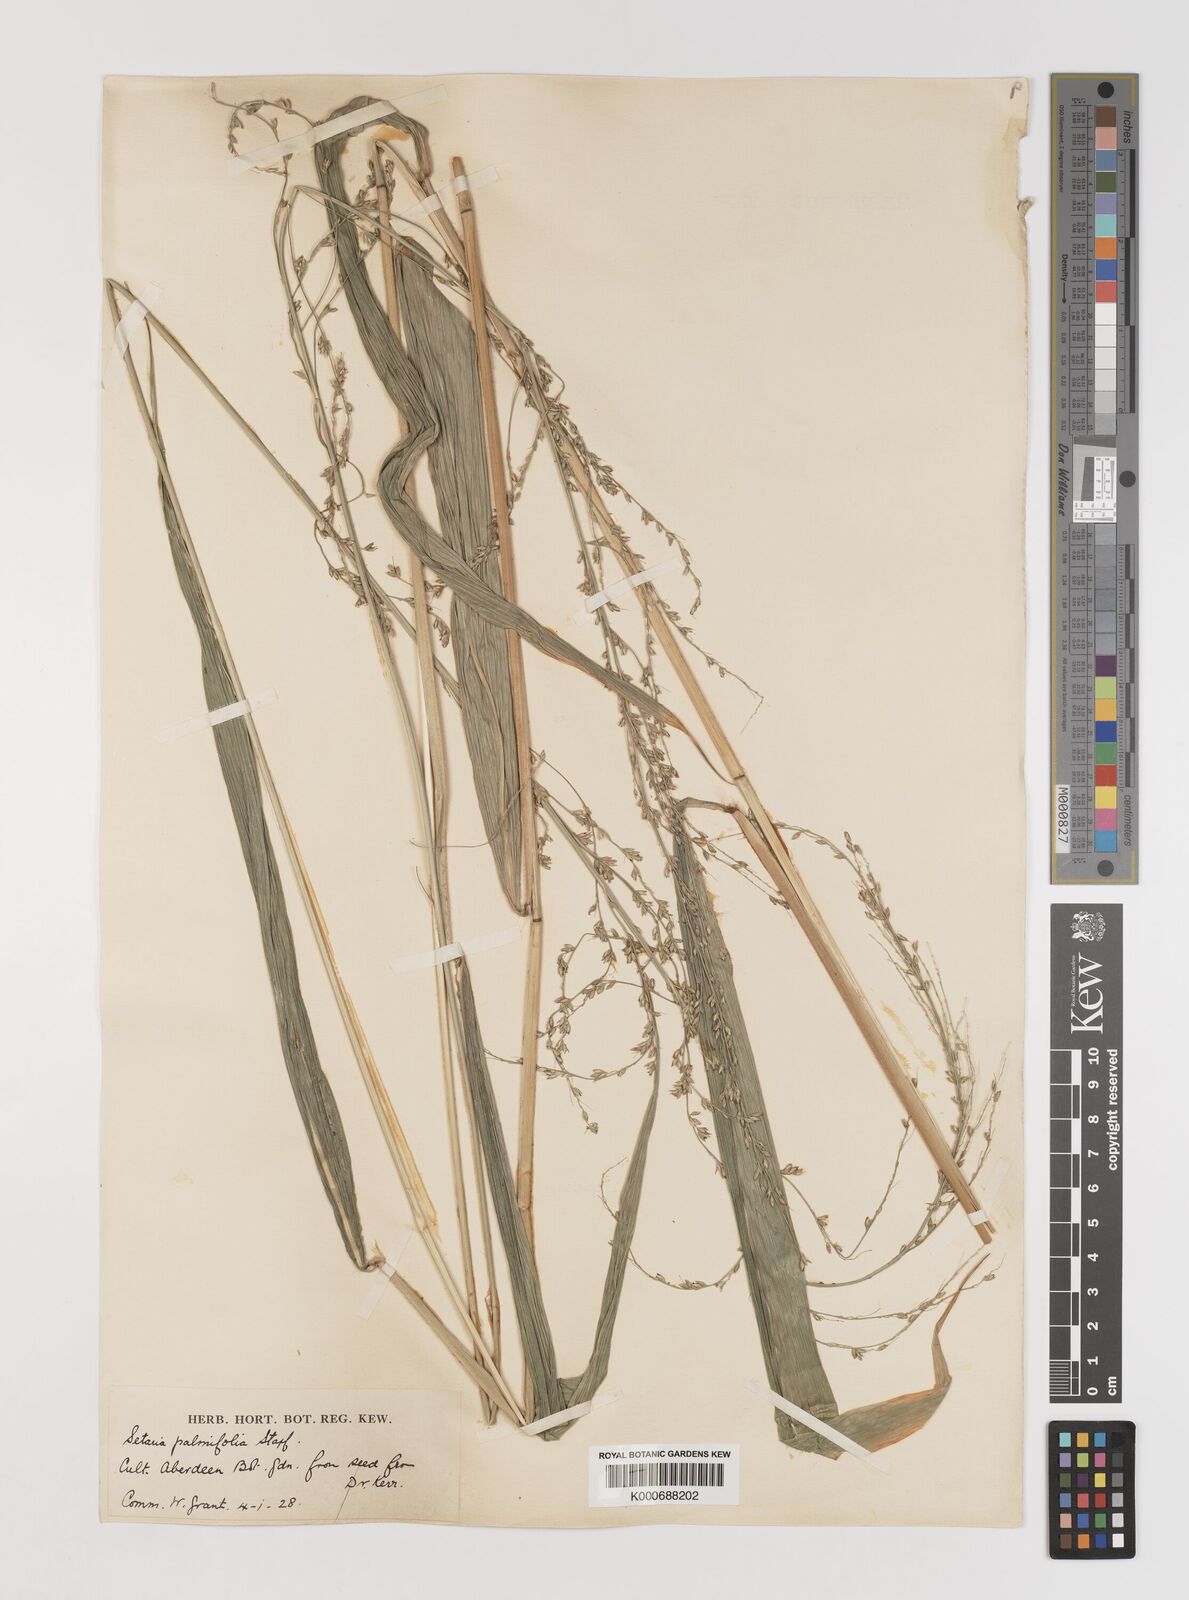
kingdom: Plantae
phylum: Tracheophyta
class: Liliopsida
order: Poales
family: Poaceae
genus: Setaria
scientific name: Setaria palmifolia
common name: Broadleaved bristlegrass
